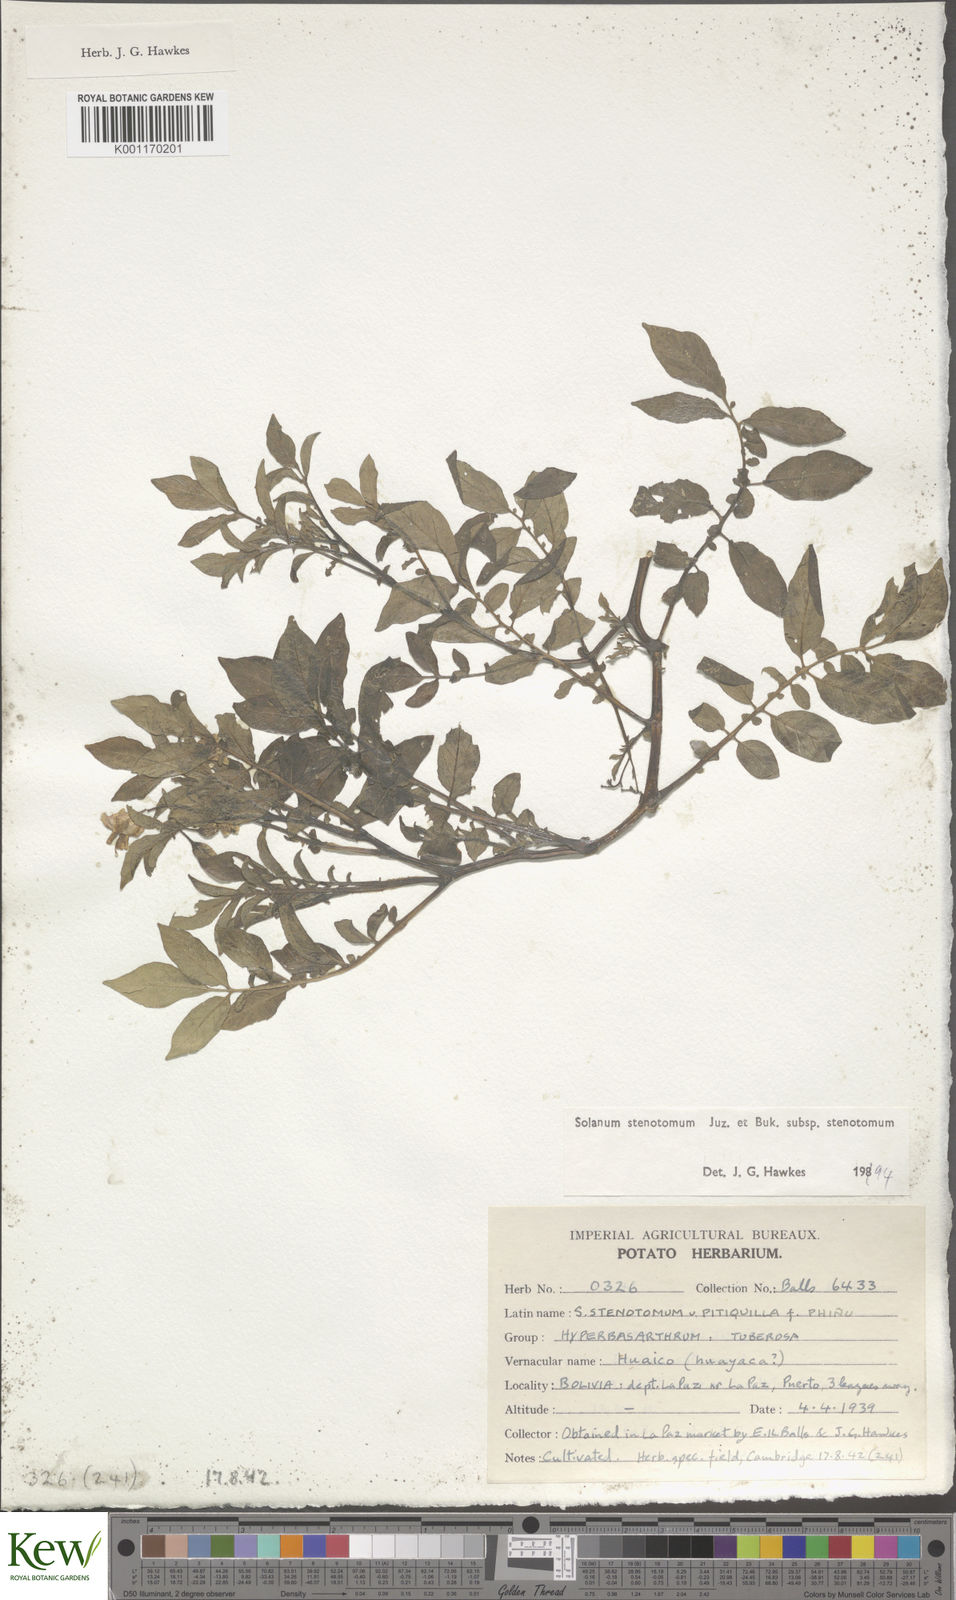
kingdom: Plantae
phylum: Tracheophyta
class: Magnoliopsida
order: Solanales
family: Solanaceae
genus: Solanum
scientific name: Solanum tuberosum
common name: Potato
